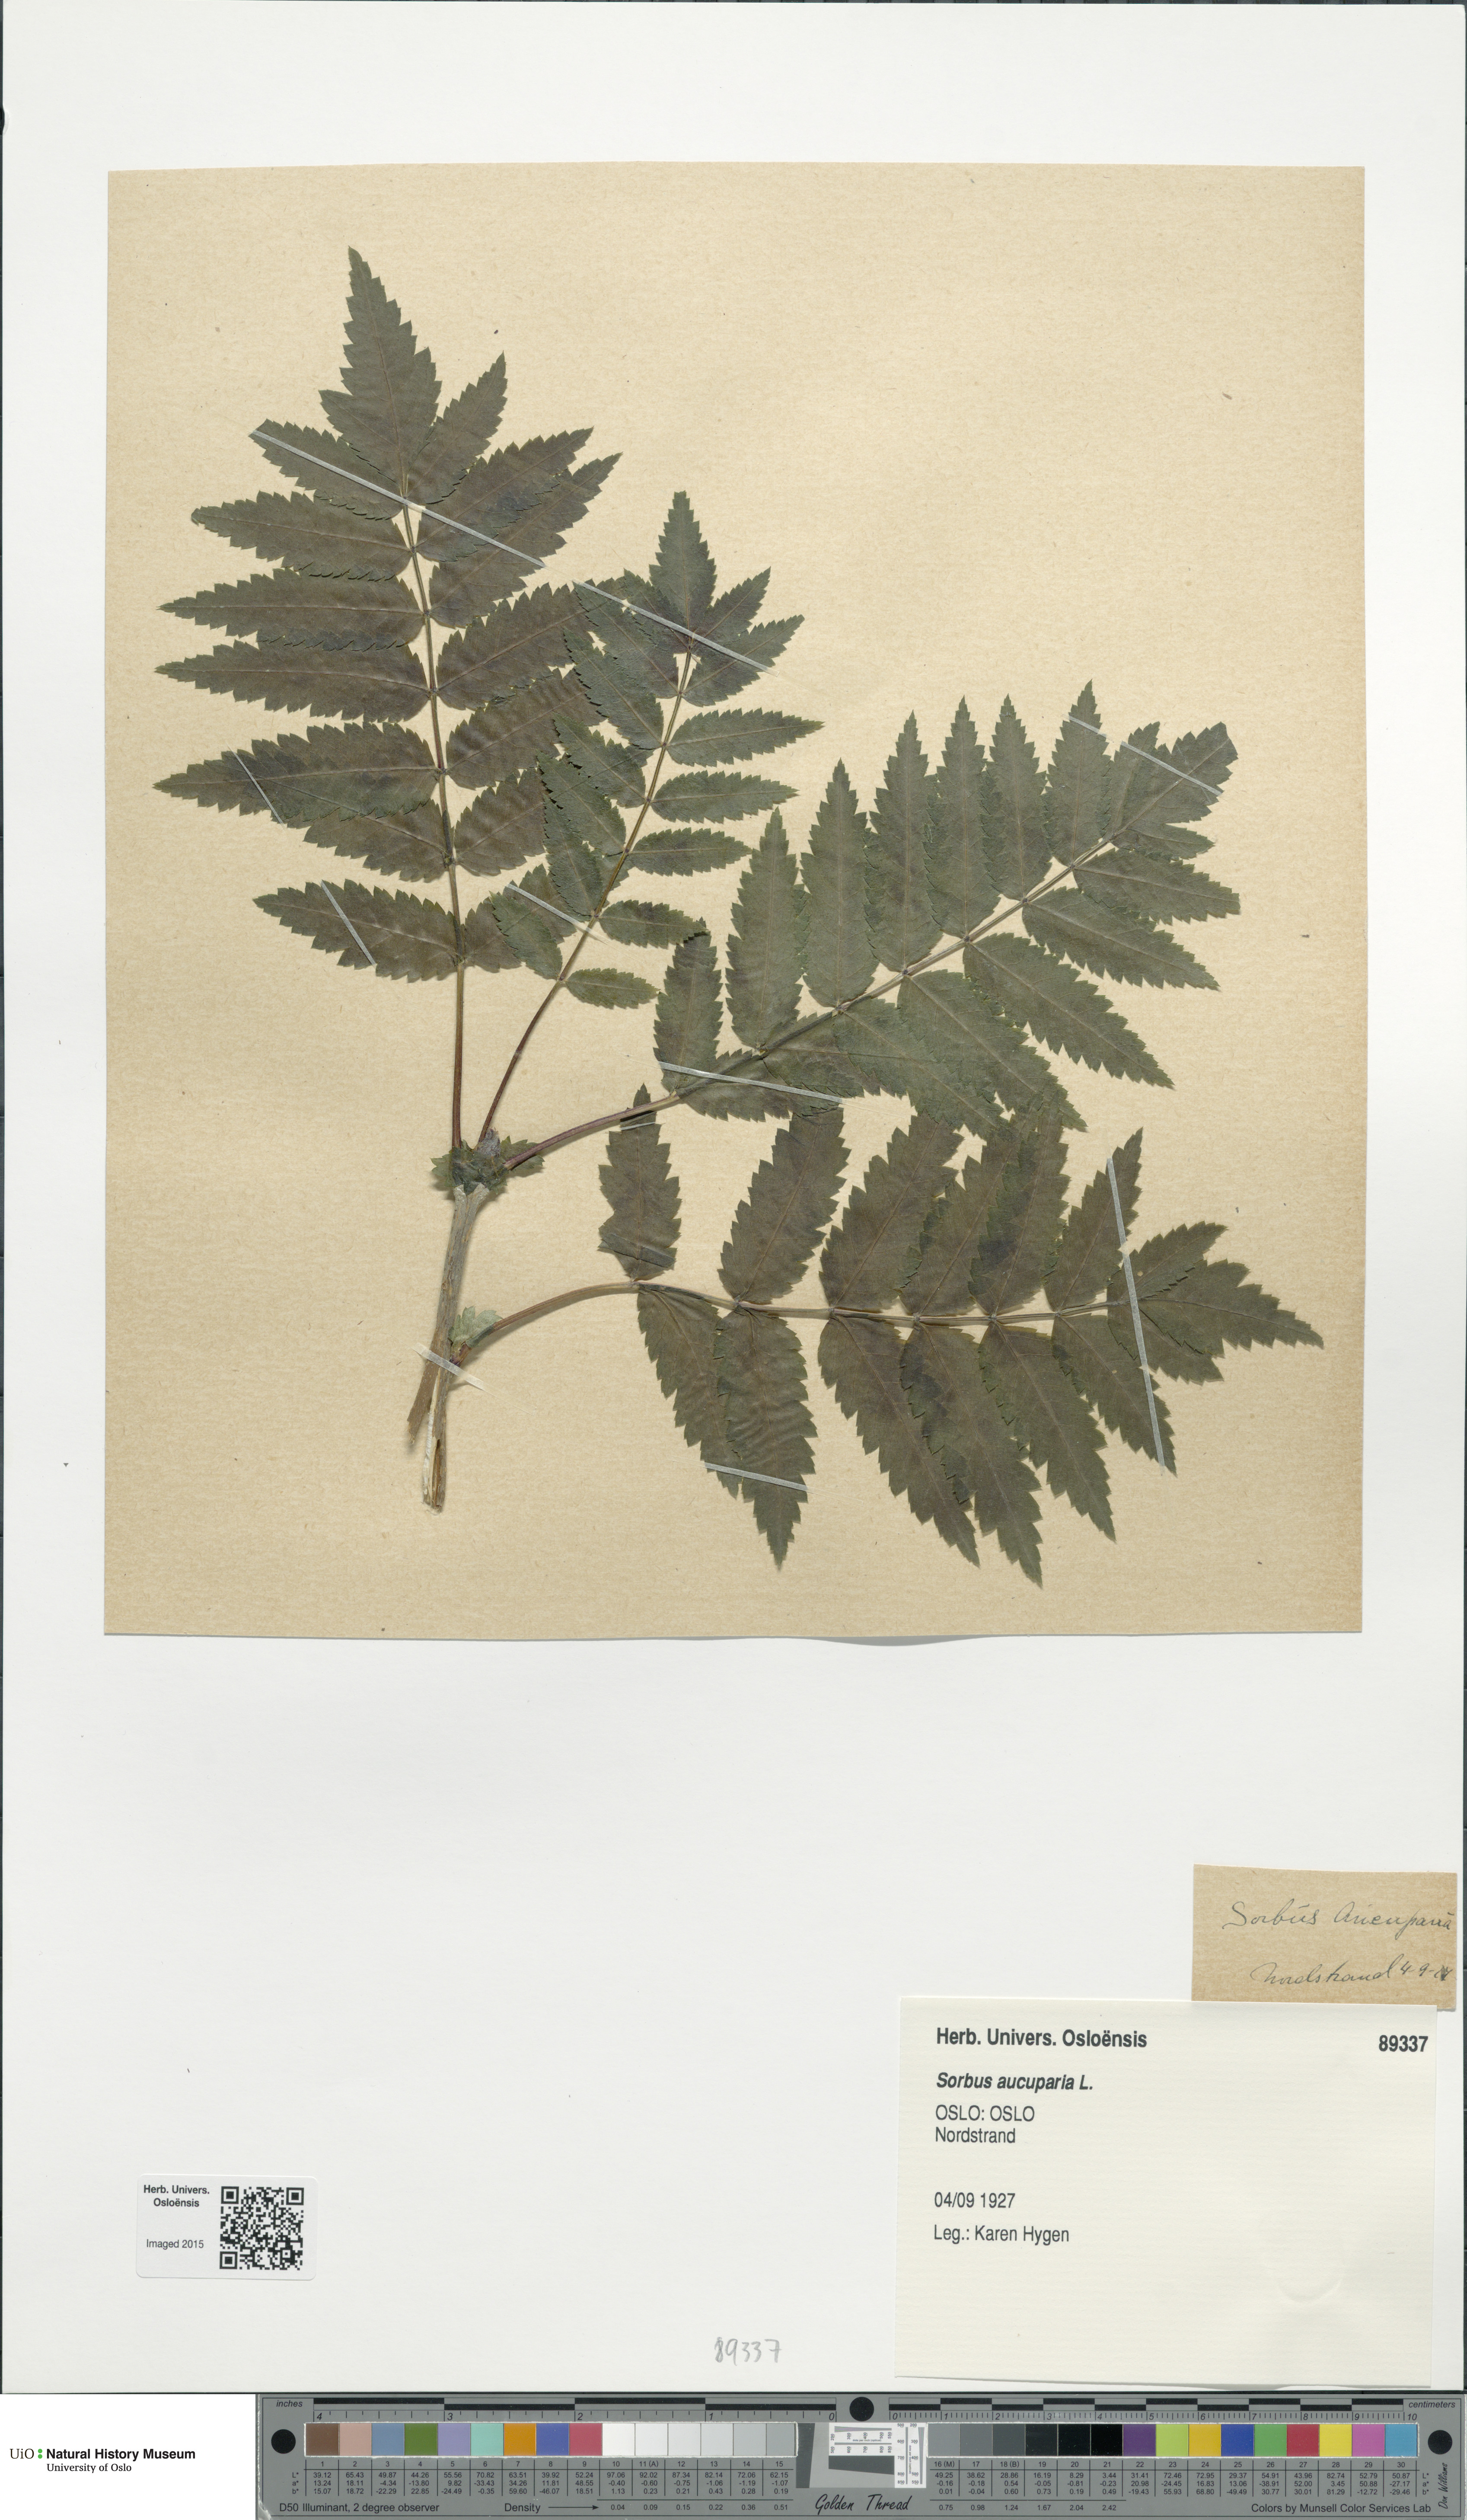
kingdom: Plantae
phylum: Tracheophyta
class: Magnoliopsida
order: Rosales
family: Rosaceae
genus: Sorbus
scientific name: Sorbus aucuparia
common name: Rowan
